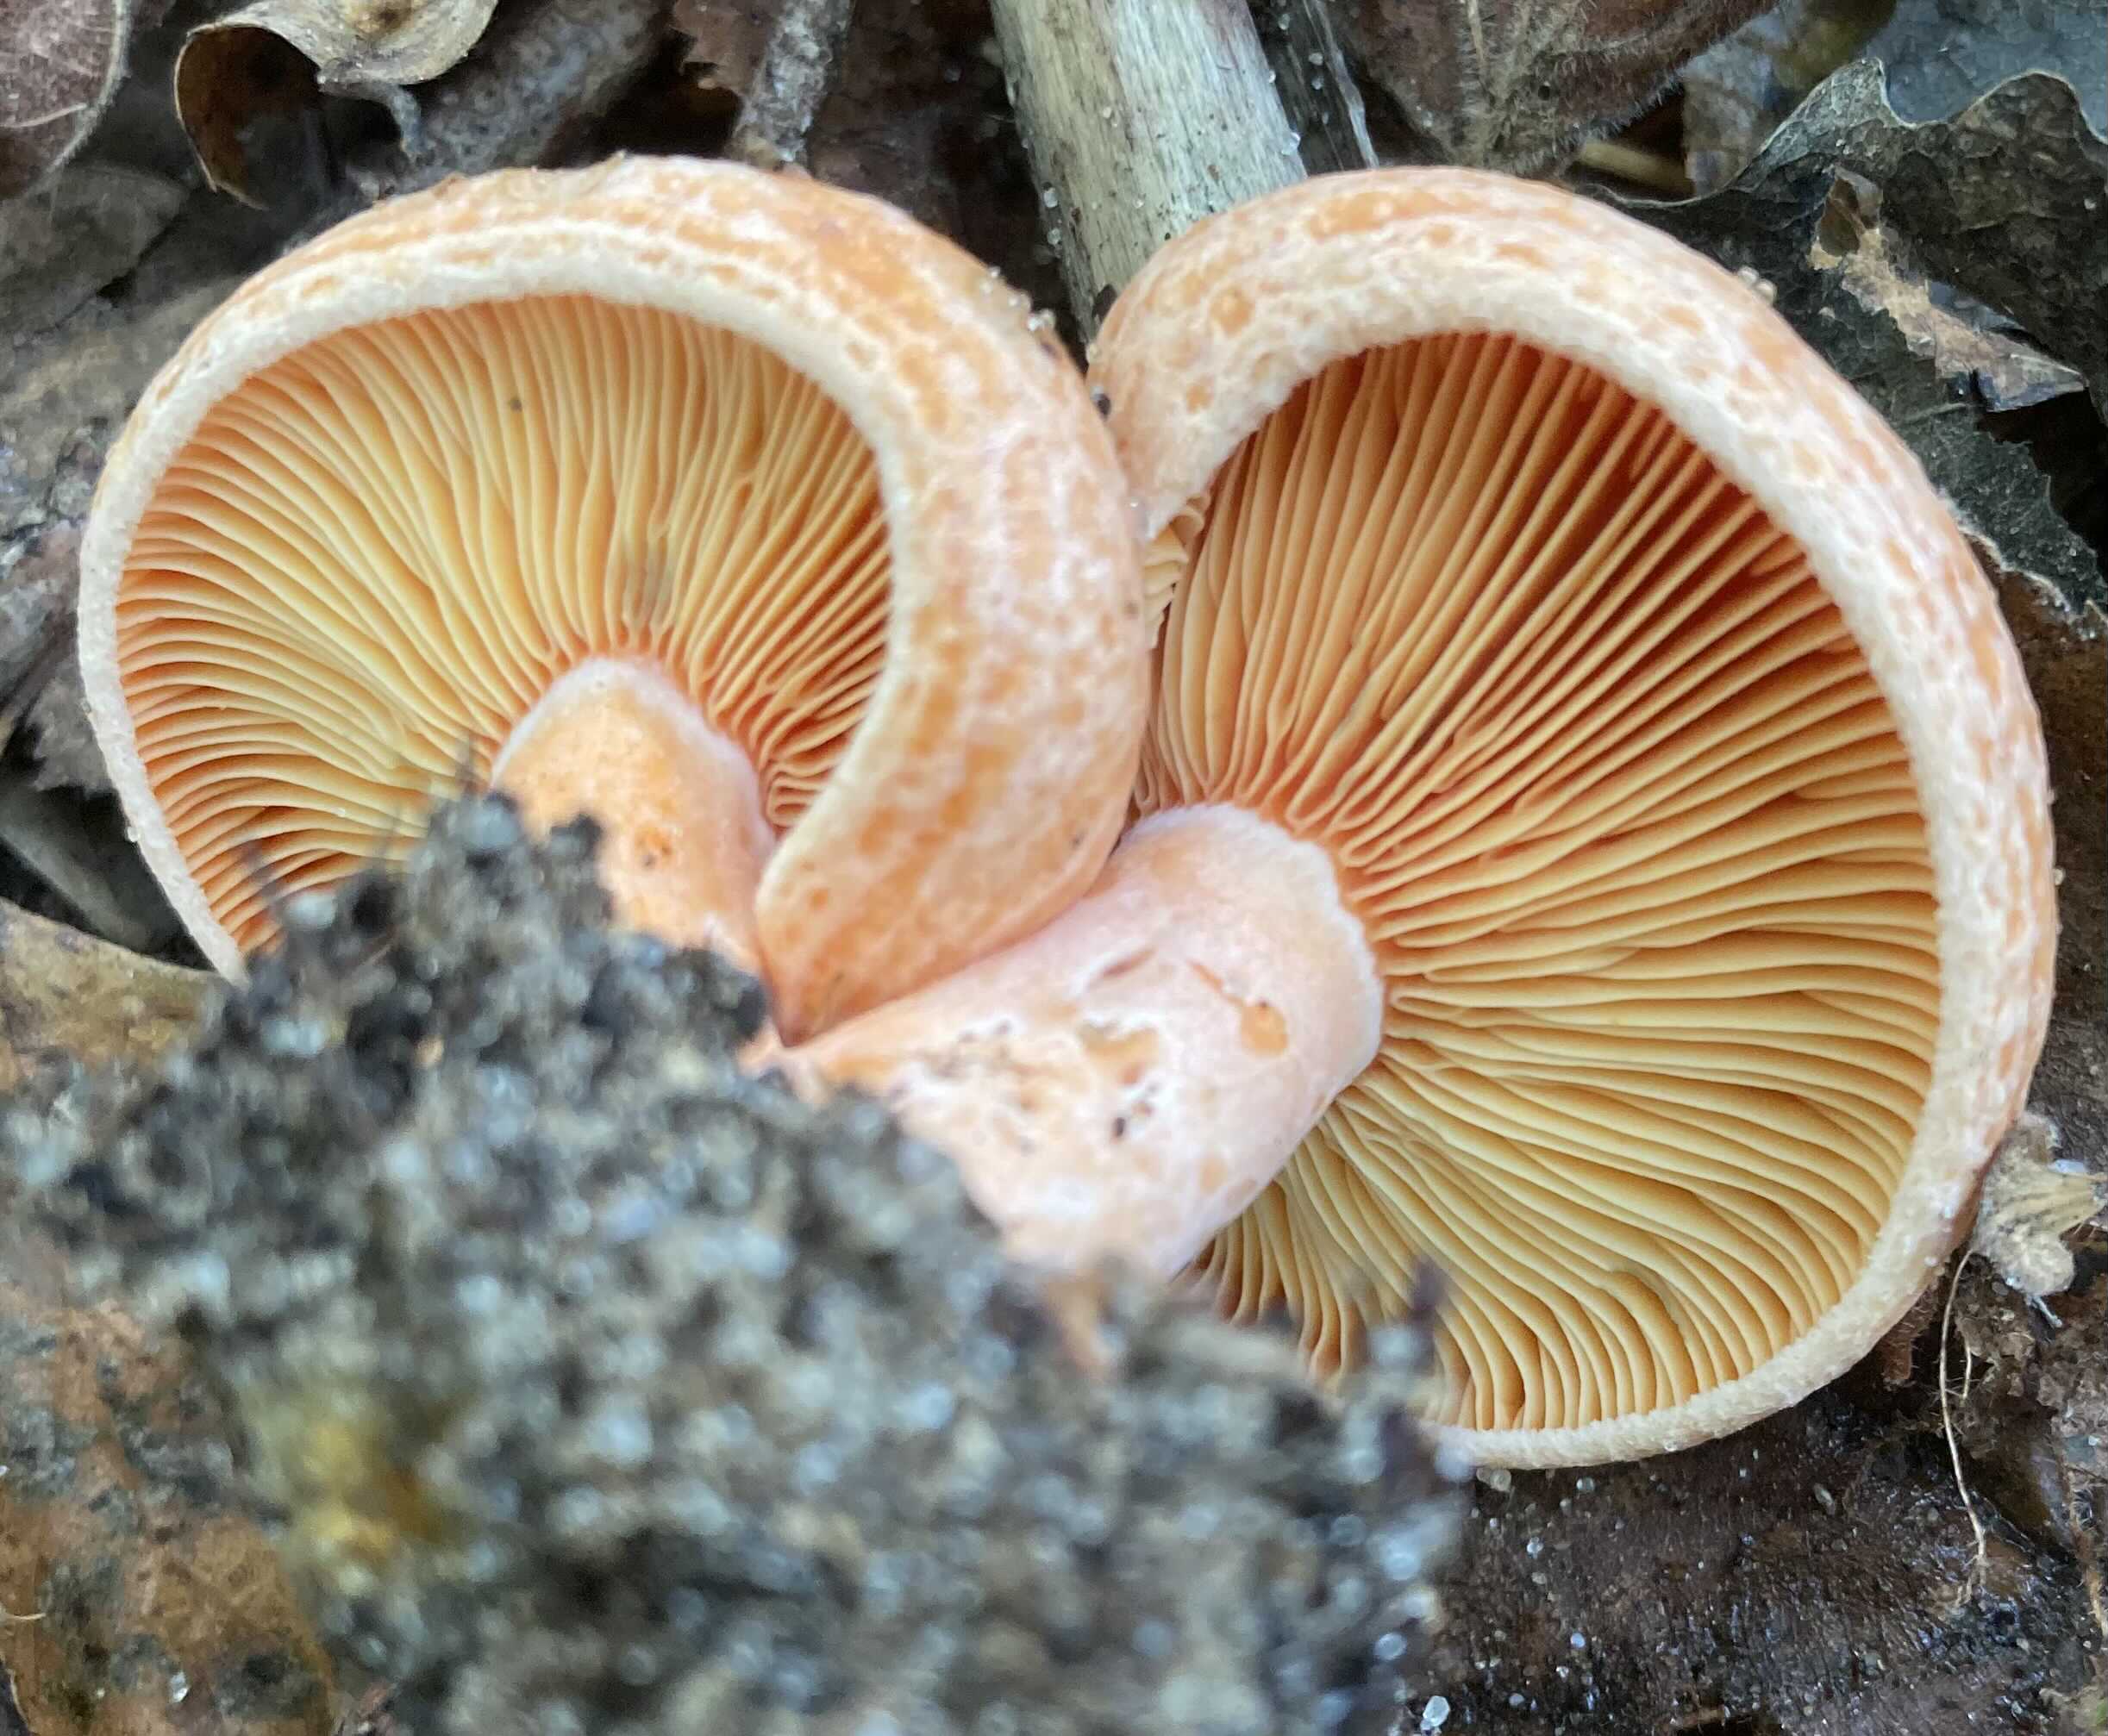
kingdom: Fungi
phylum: Basidiomycota
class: Agaricomycetes
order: Russulales
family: Russulaceae
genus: Lactarius
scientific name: Lactarius deliciosus
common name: velsmagende mælkehat
